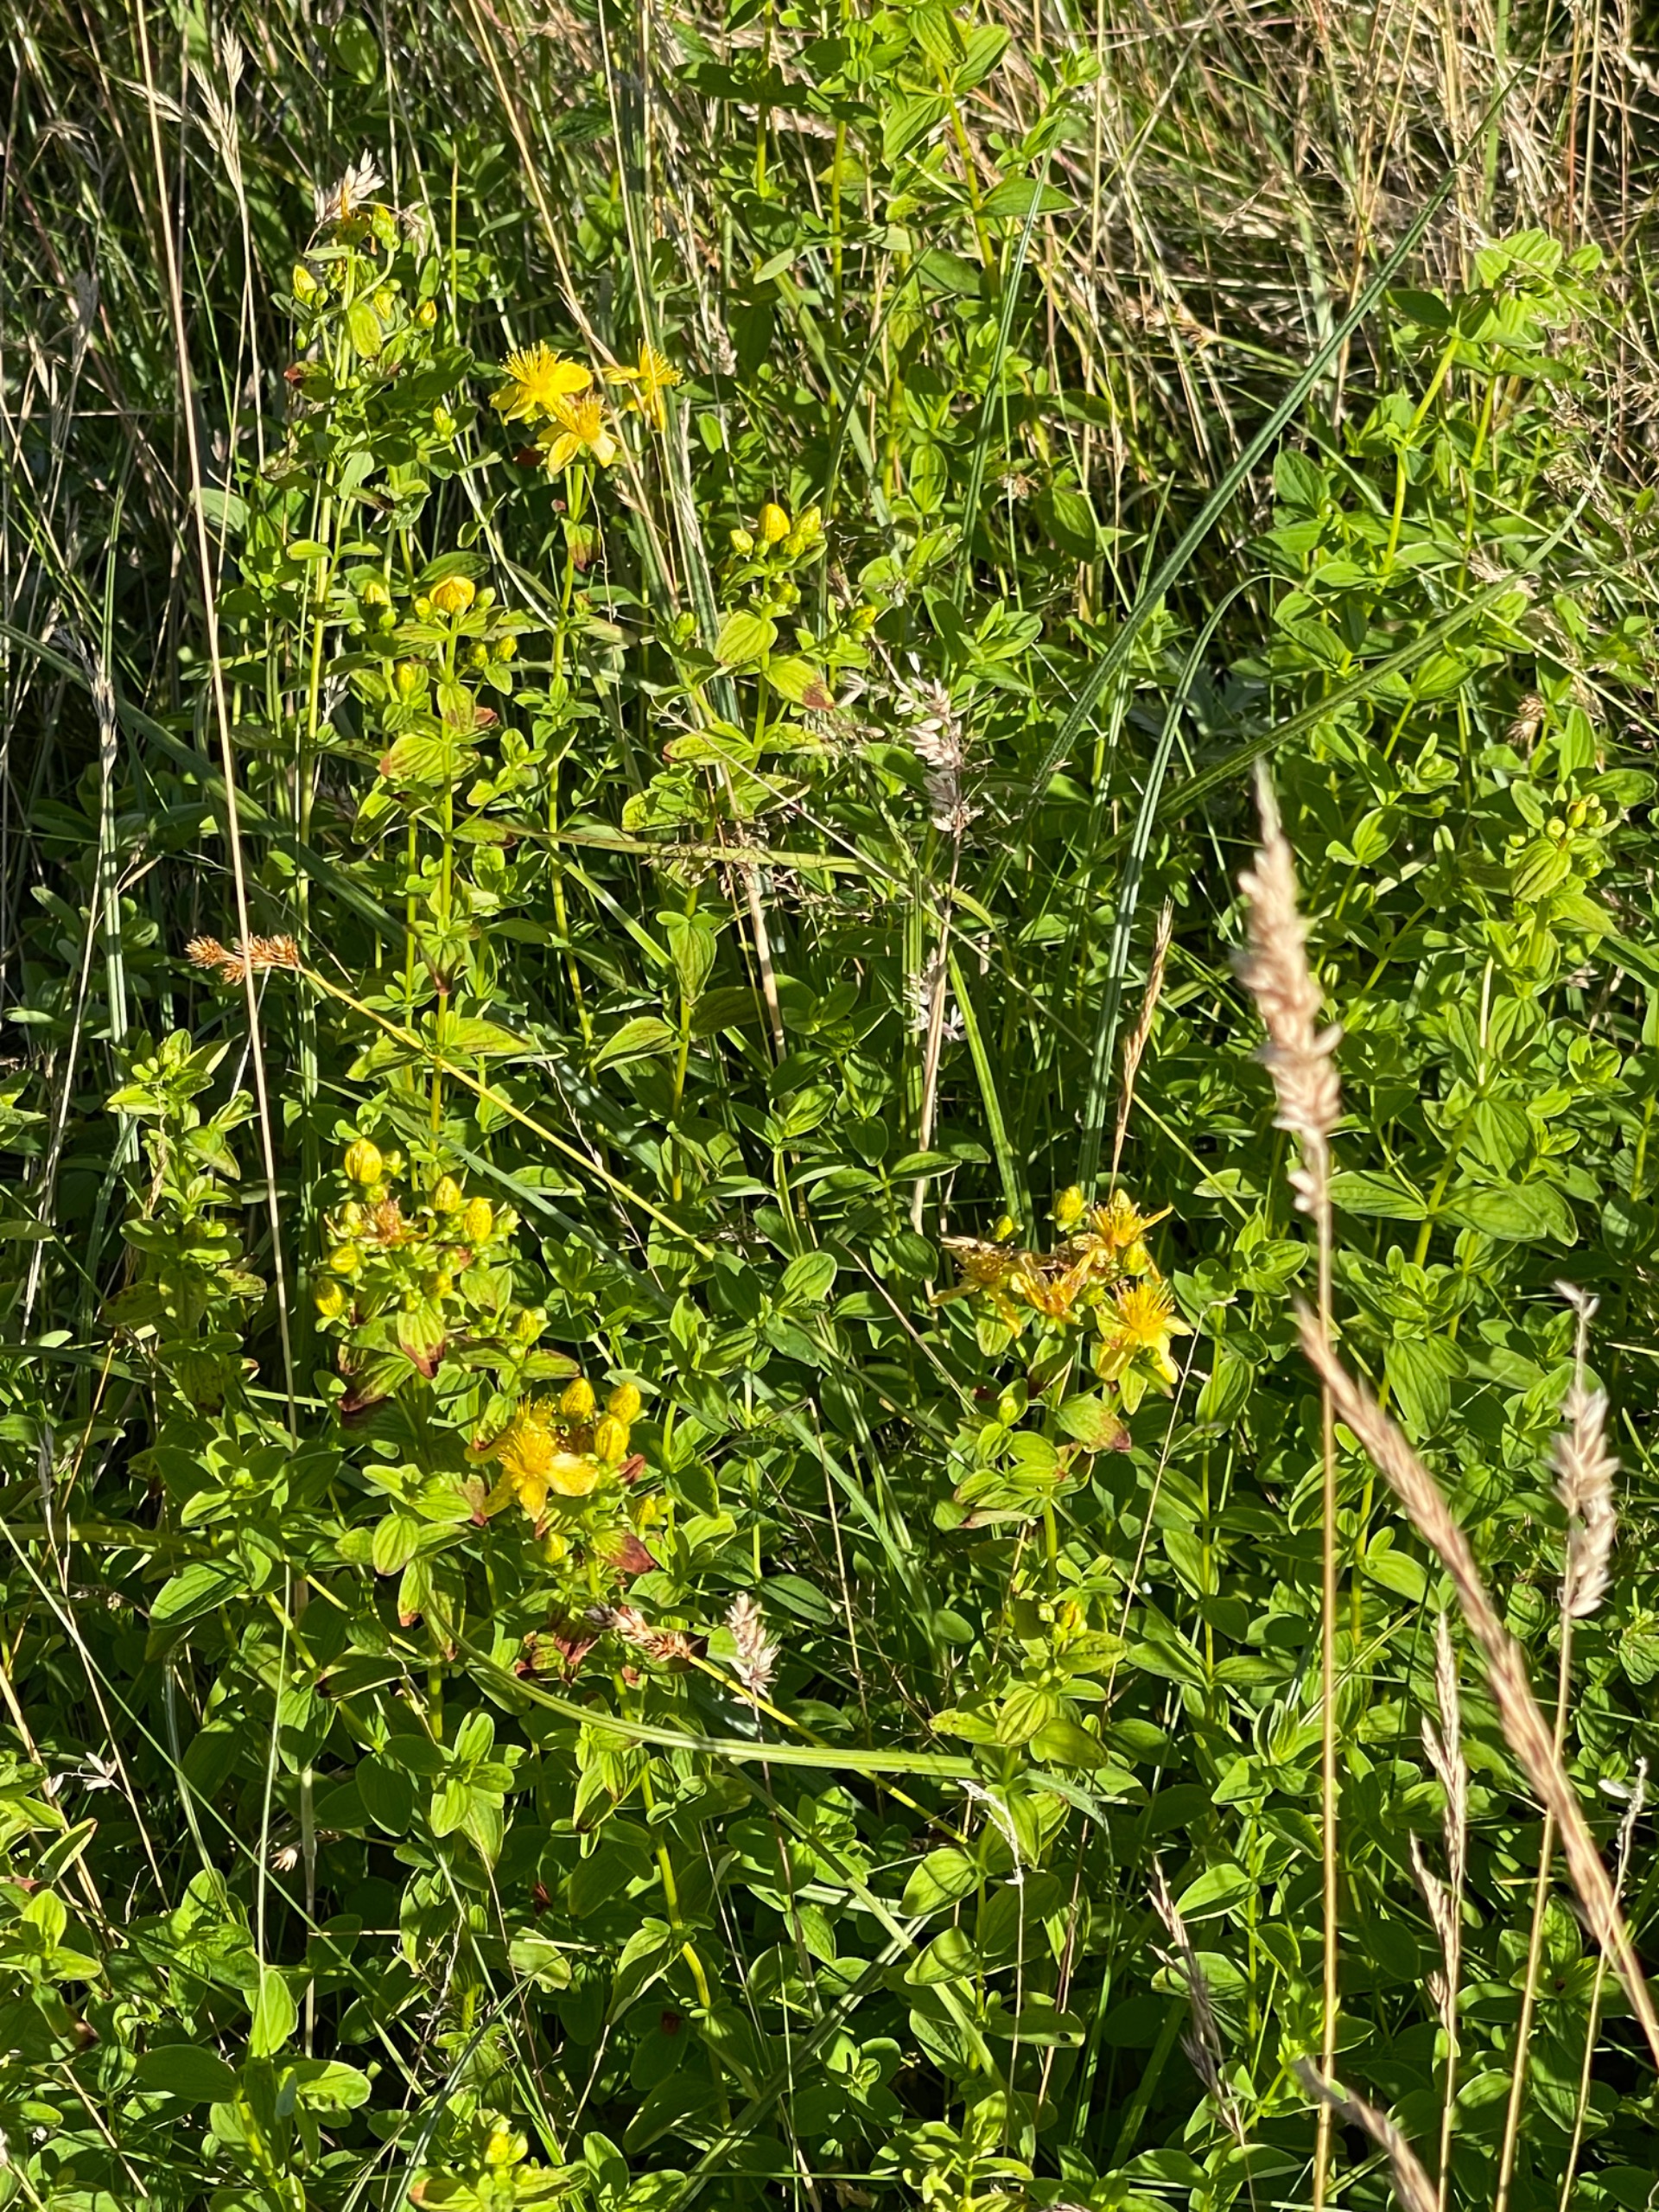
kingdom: Plantae
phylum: Tracheophyta
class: Magnoliopsida
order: Malpighiales
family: Hypericaceae
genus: Hypericum
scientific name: Hypericum maculatum
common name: Kantet perikon
